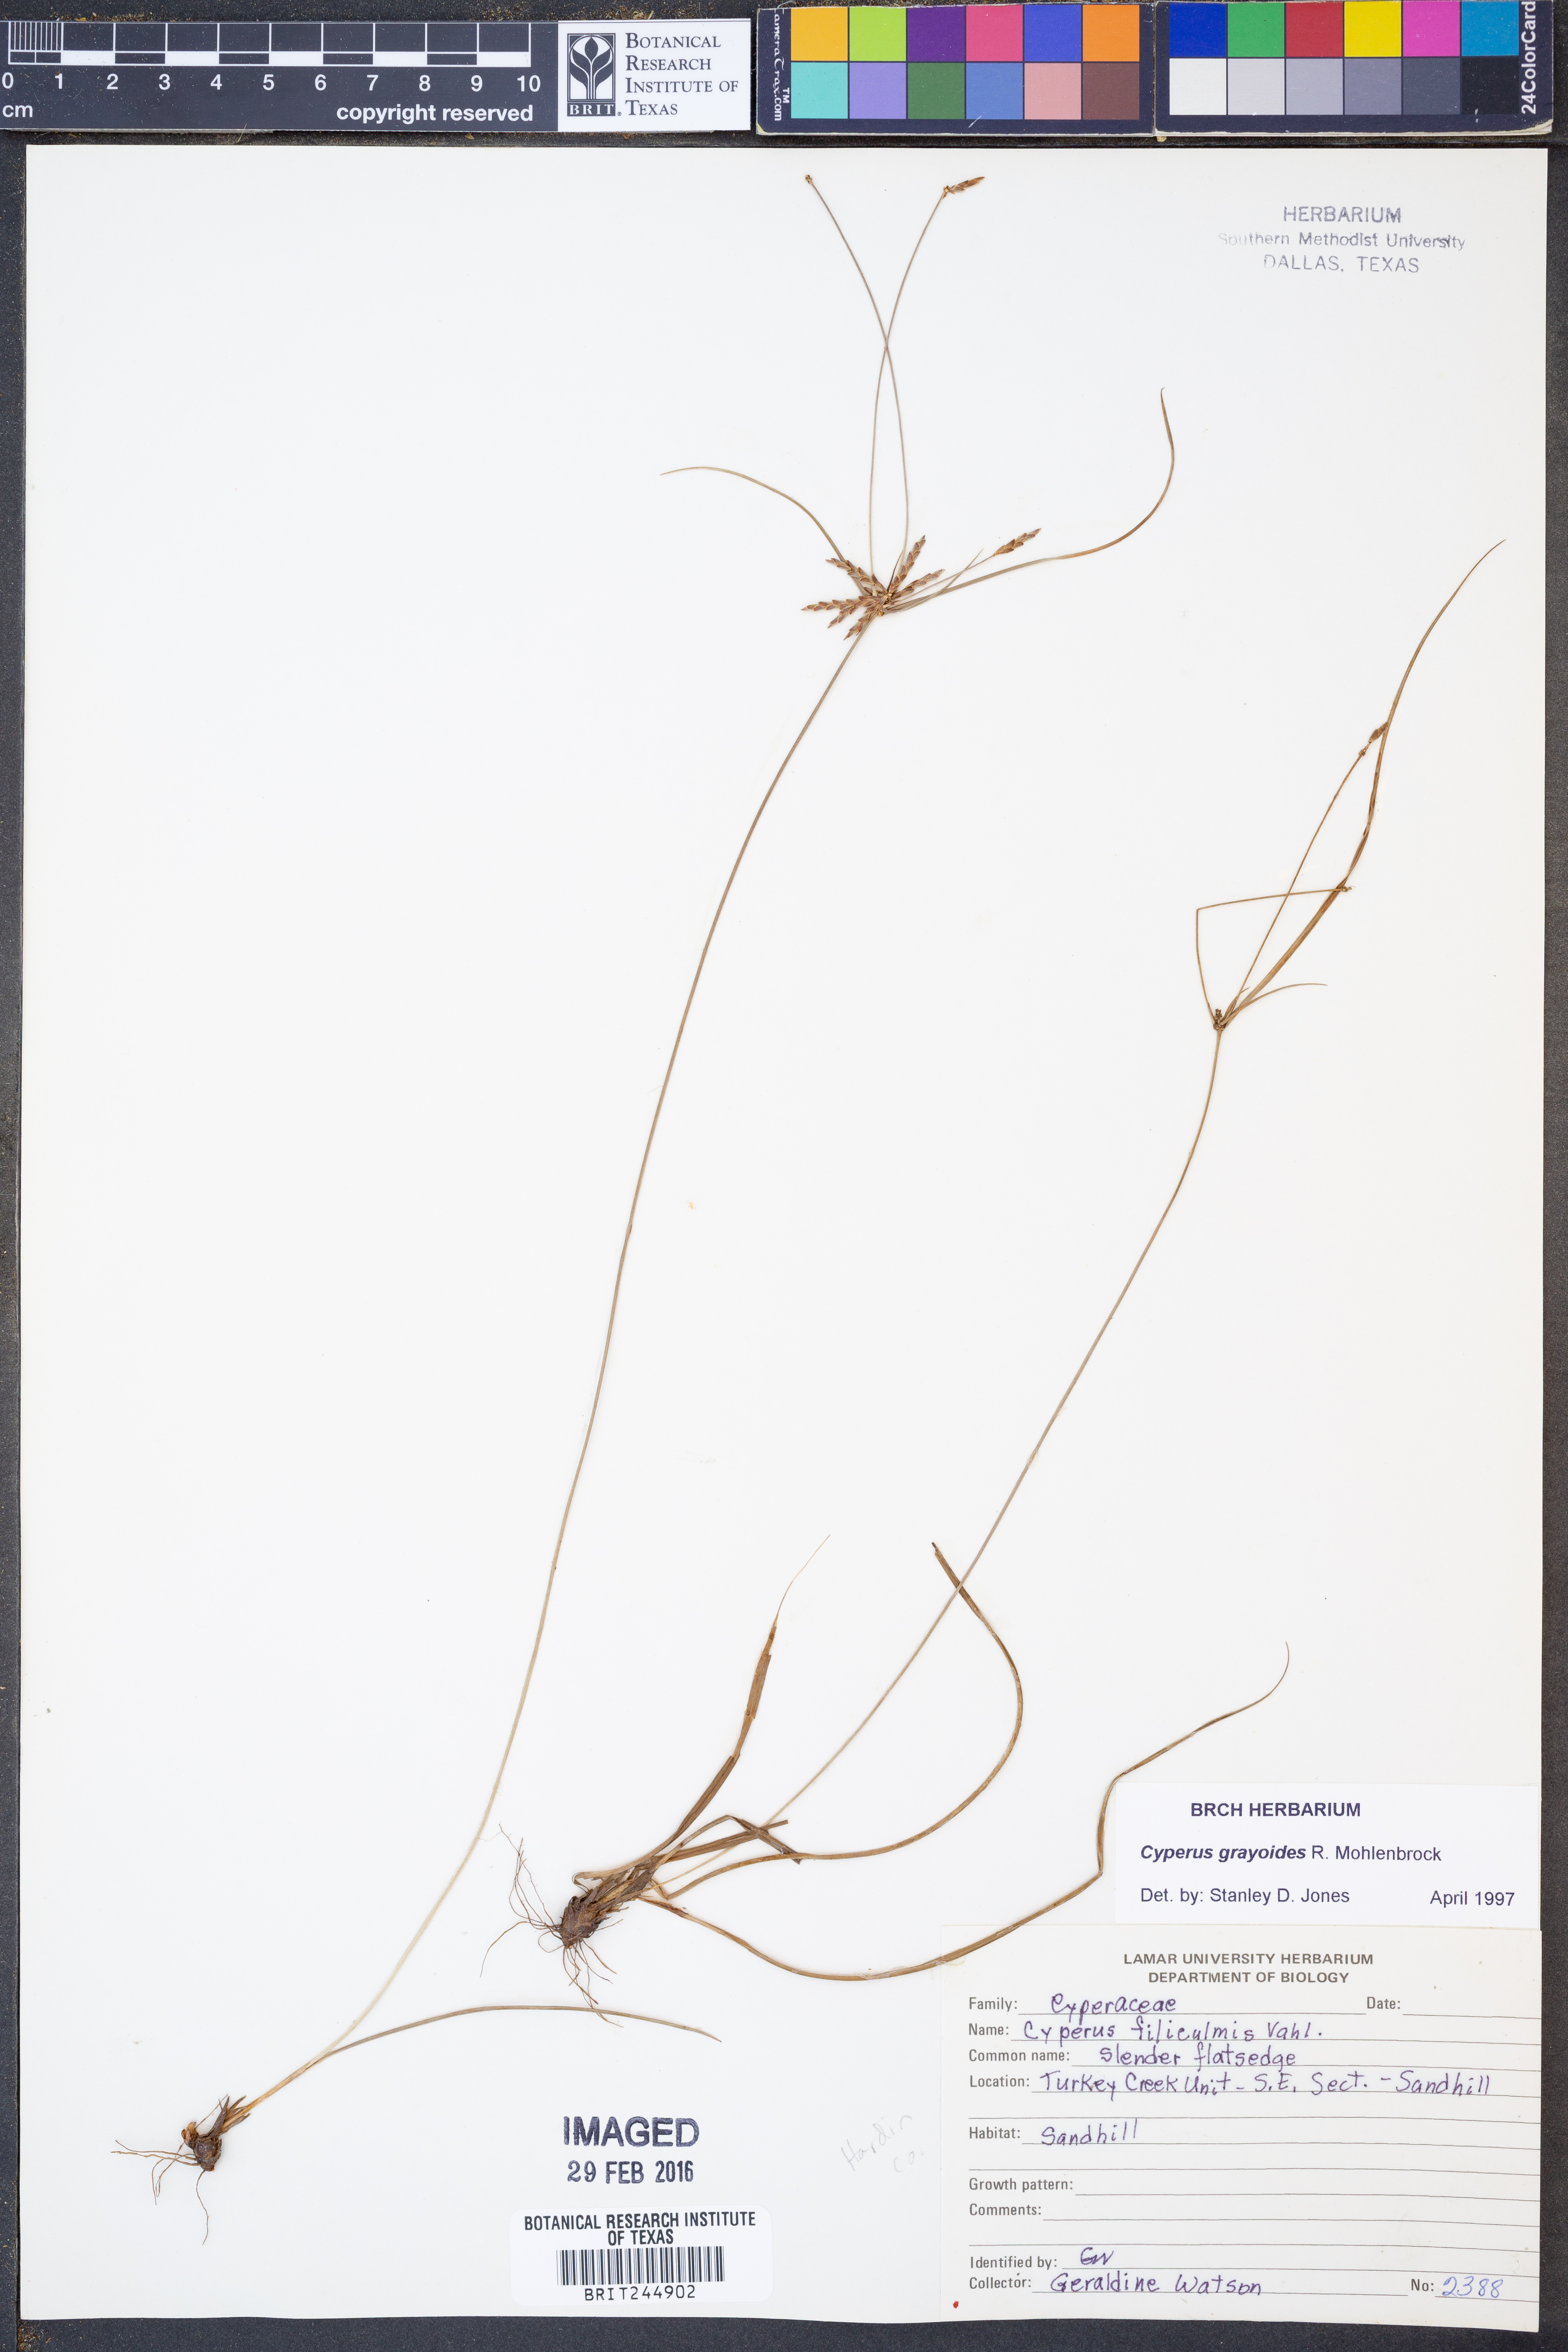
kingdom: Plantae
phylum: Tracheophyta
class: Liliopsida
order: Poales
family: Cyperaceae
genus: Cyperus
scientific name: Cyperus grayioides
